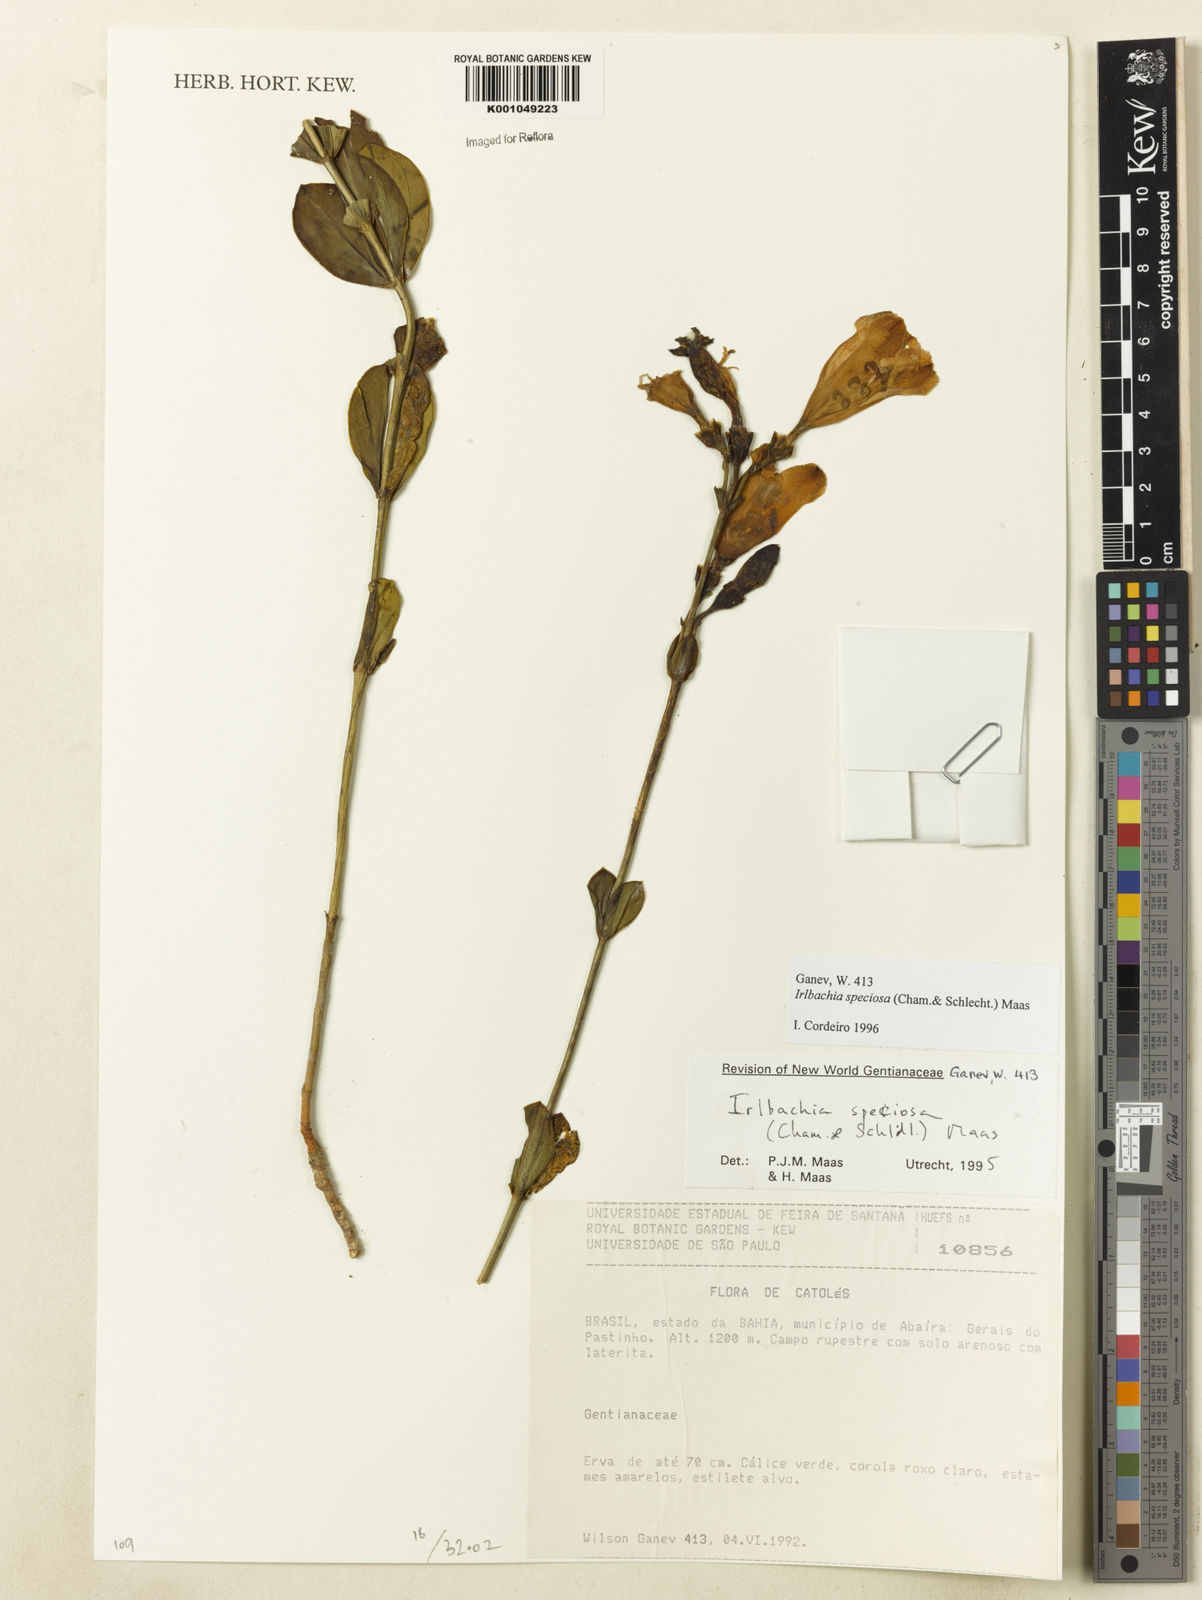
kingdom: Plantae
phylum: Tracheophyta
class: Magnoliopsida
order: Gentianales
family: Gentianaceae
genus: Calolisianthus
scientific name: Calolisianthus speciosus
